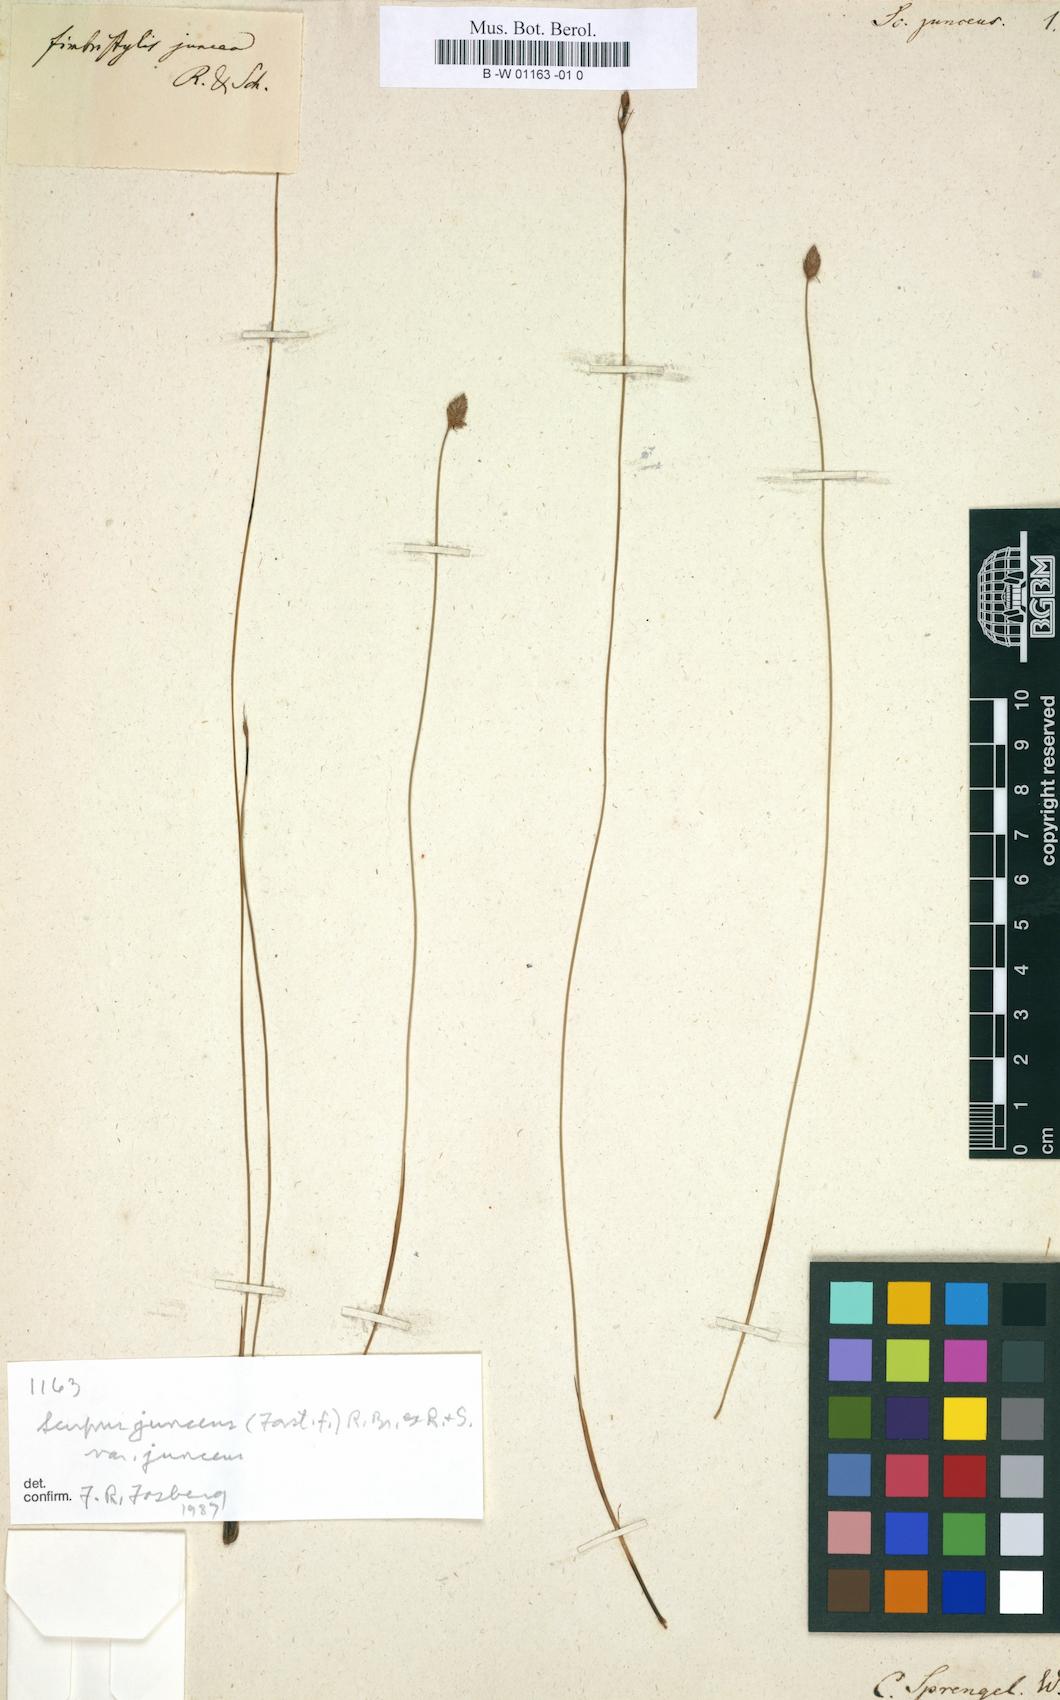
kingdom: Plantae
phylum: Tracheophyta
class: Liliopsida
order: Poales
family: Cyperaceae
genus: Fimbristylis
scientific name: Fimbristylis juncea
